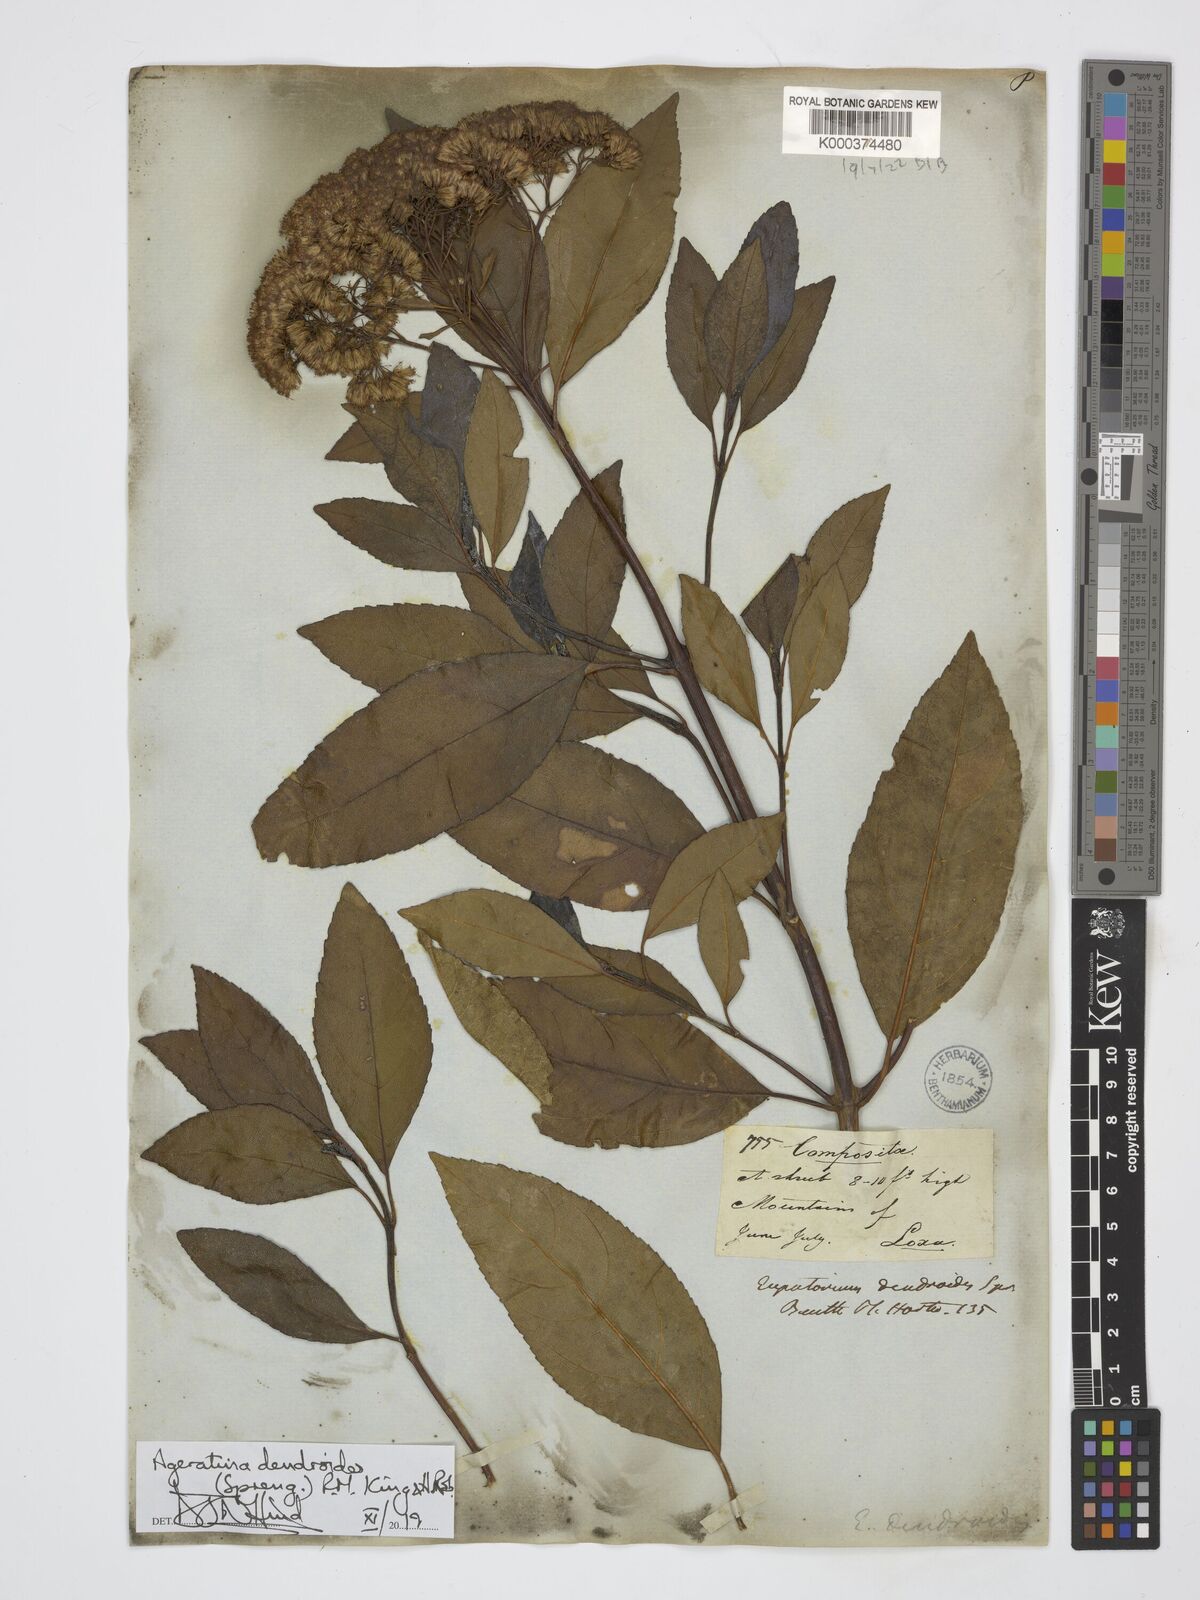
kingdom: Plantae
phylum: Tracheophyta
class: Magnoliopsida
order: Asterales
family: Asteraceae
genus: Raulinoreitzia
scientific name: Raulinoreitzia crenulata
